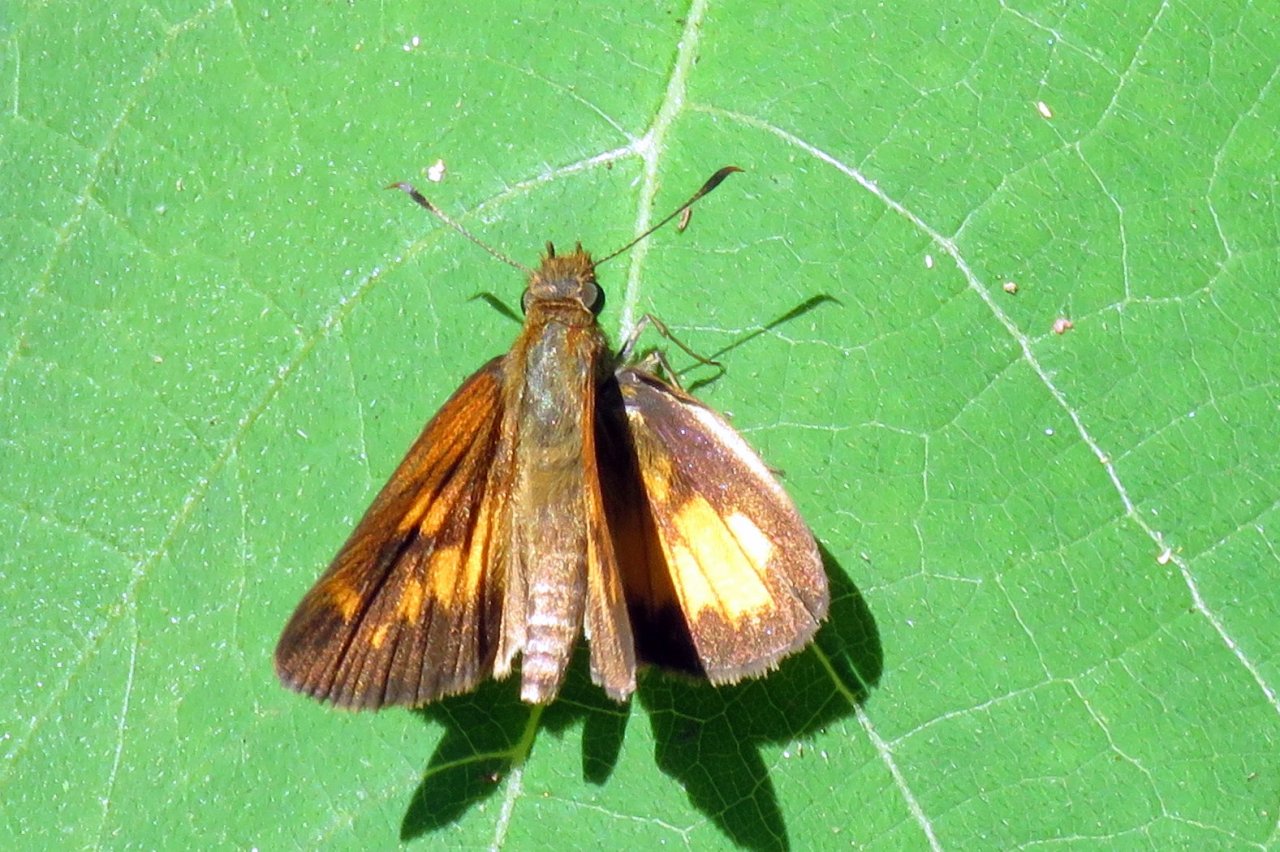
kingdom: Animalia
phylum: Arthropoda
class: Insecta
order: Lepidoptera
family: Hesperiidae
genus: Poanes
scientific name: Poanes viator
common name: Broad-winged Skipper
